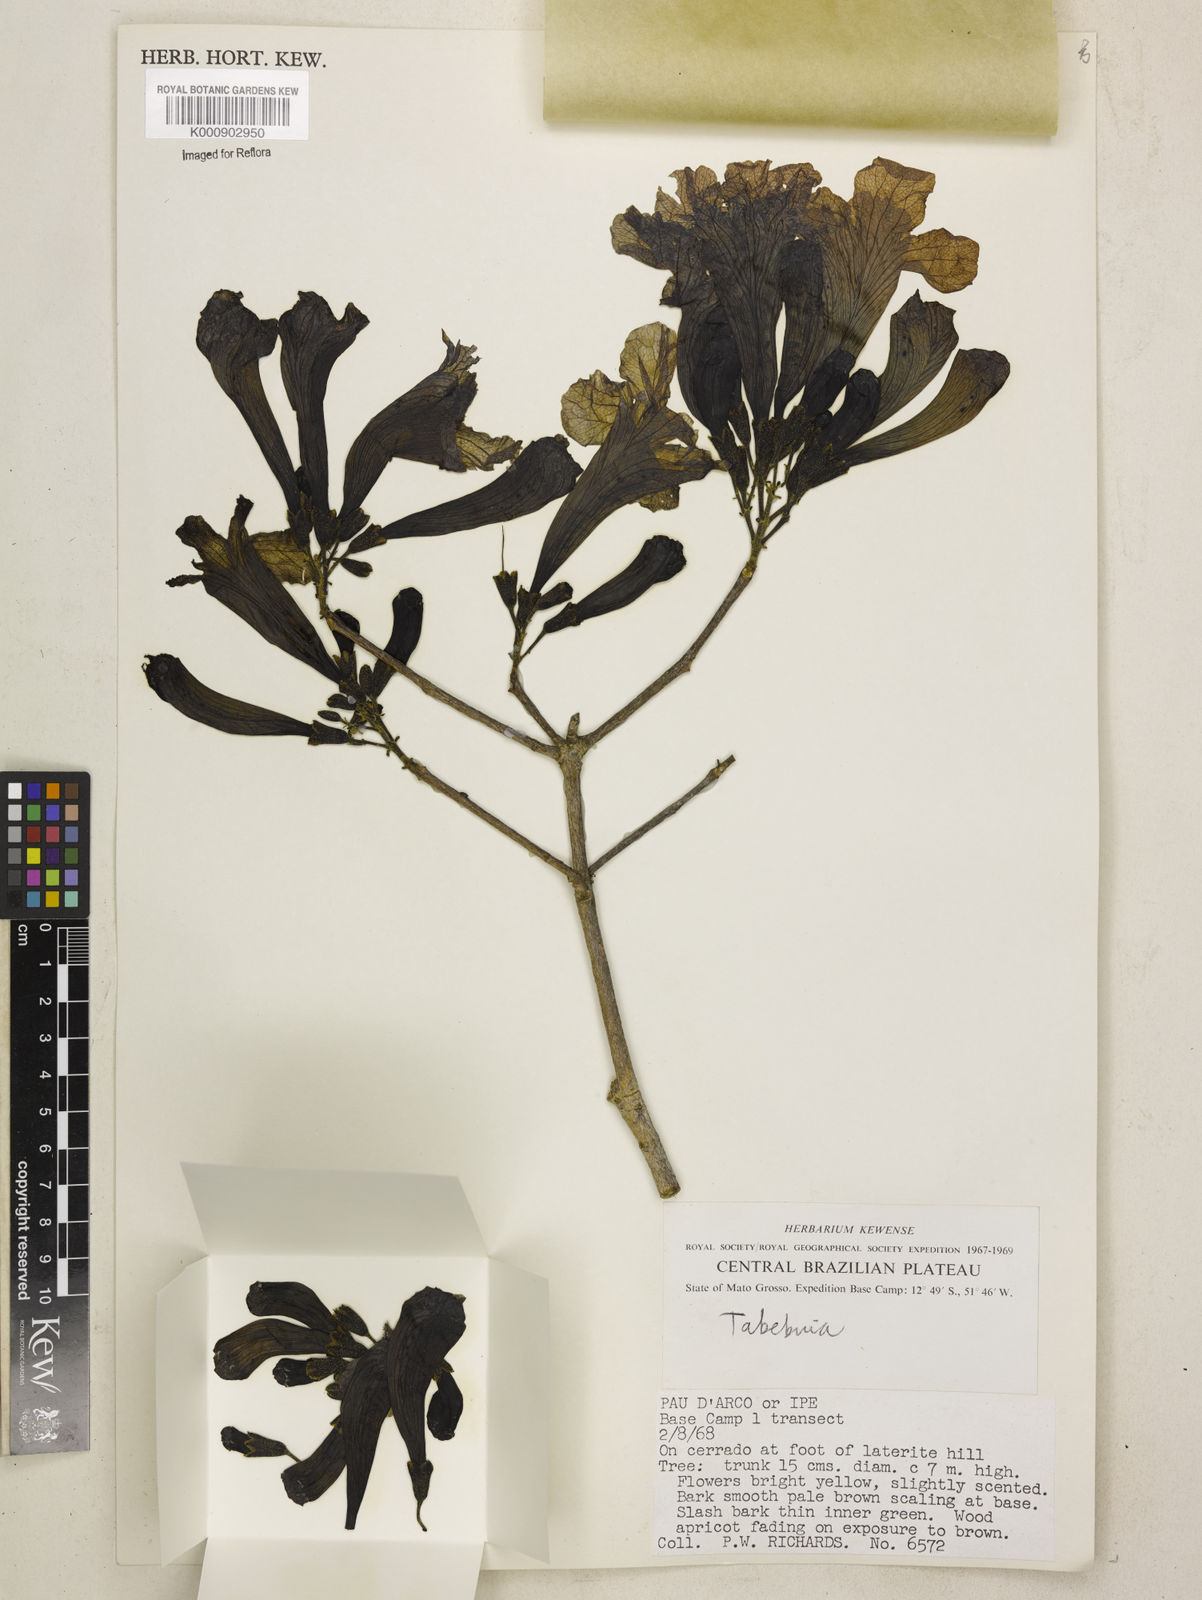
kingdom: Plantae
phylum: Tracheophyta
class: Magnoliopsida
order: Lamiales
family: Bignoniaceae
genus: Tabebuia
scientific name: Tabebuia
